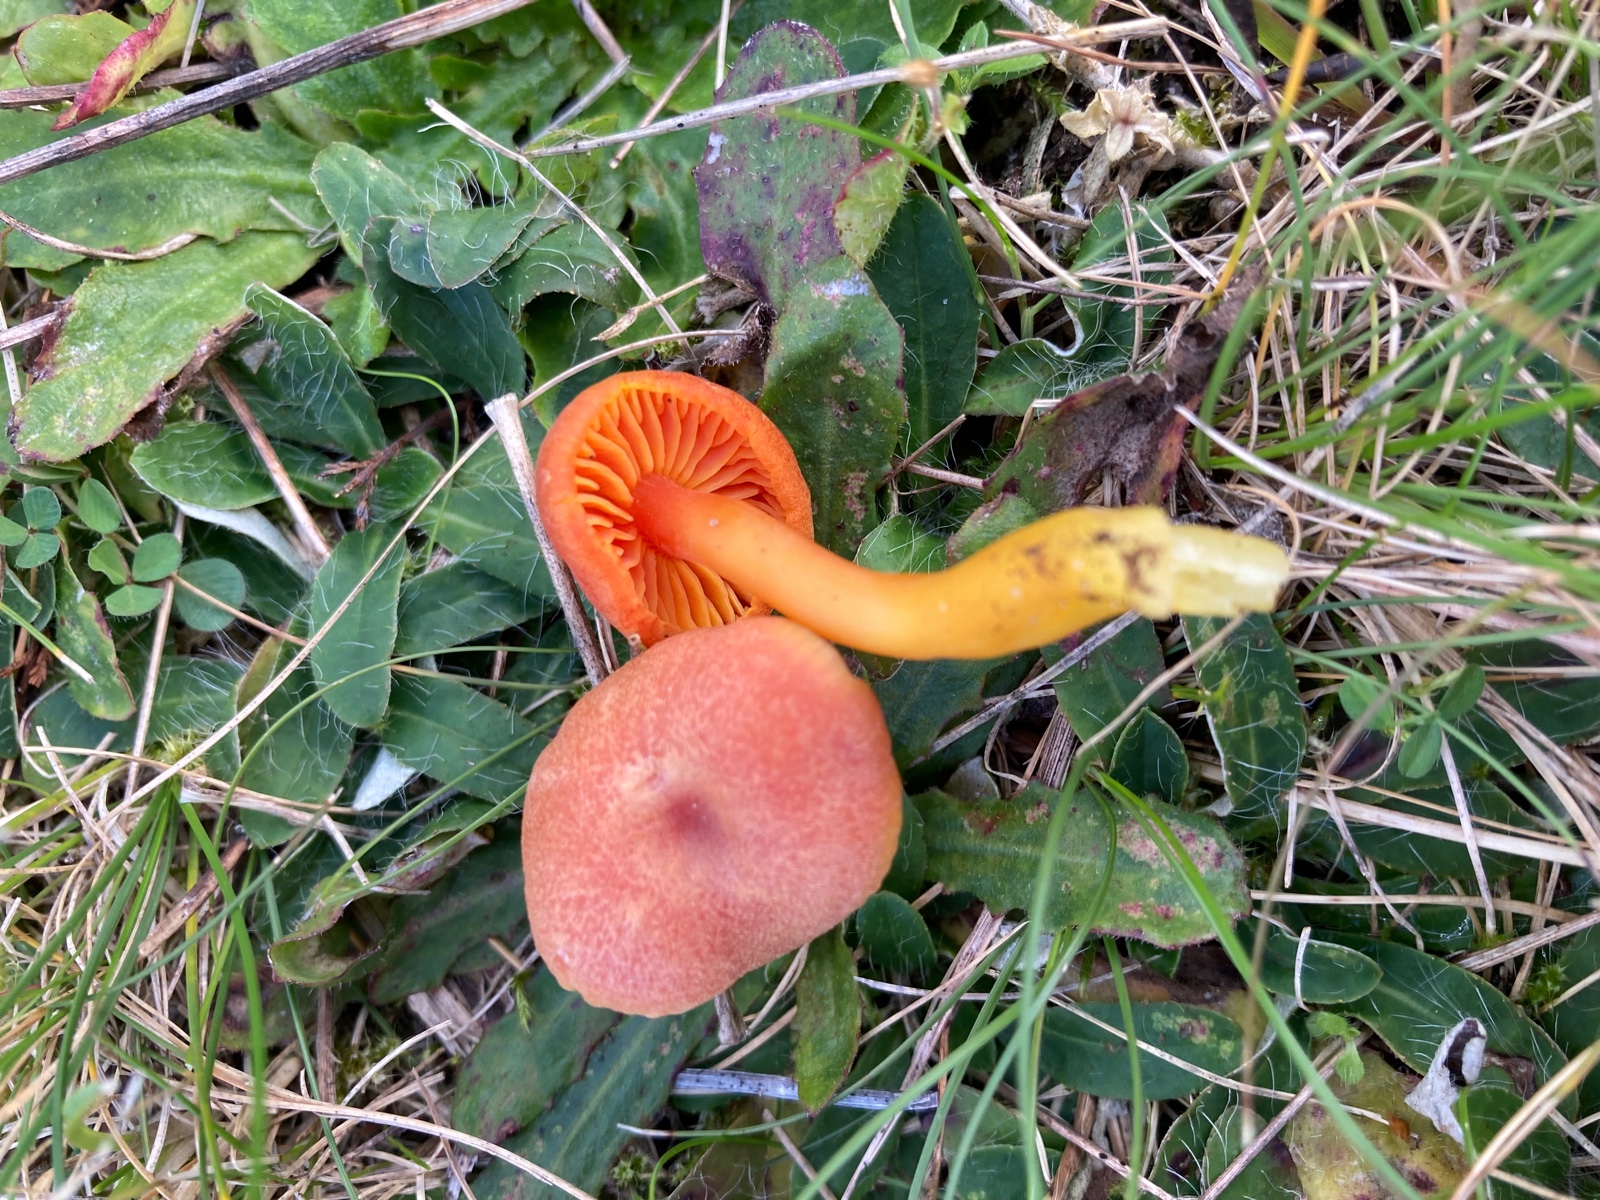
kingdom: Fungi
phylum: Basidiomycota
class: Agaricomycetes
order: Agaricales
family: Hygrophoraceae
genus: Hygrocybe
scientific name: Hygrocybe miniata
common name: mønje-vokshat
